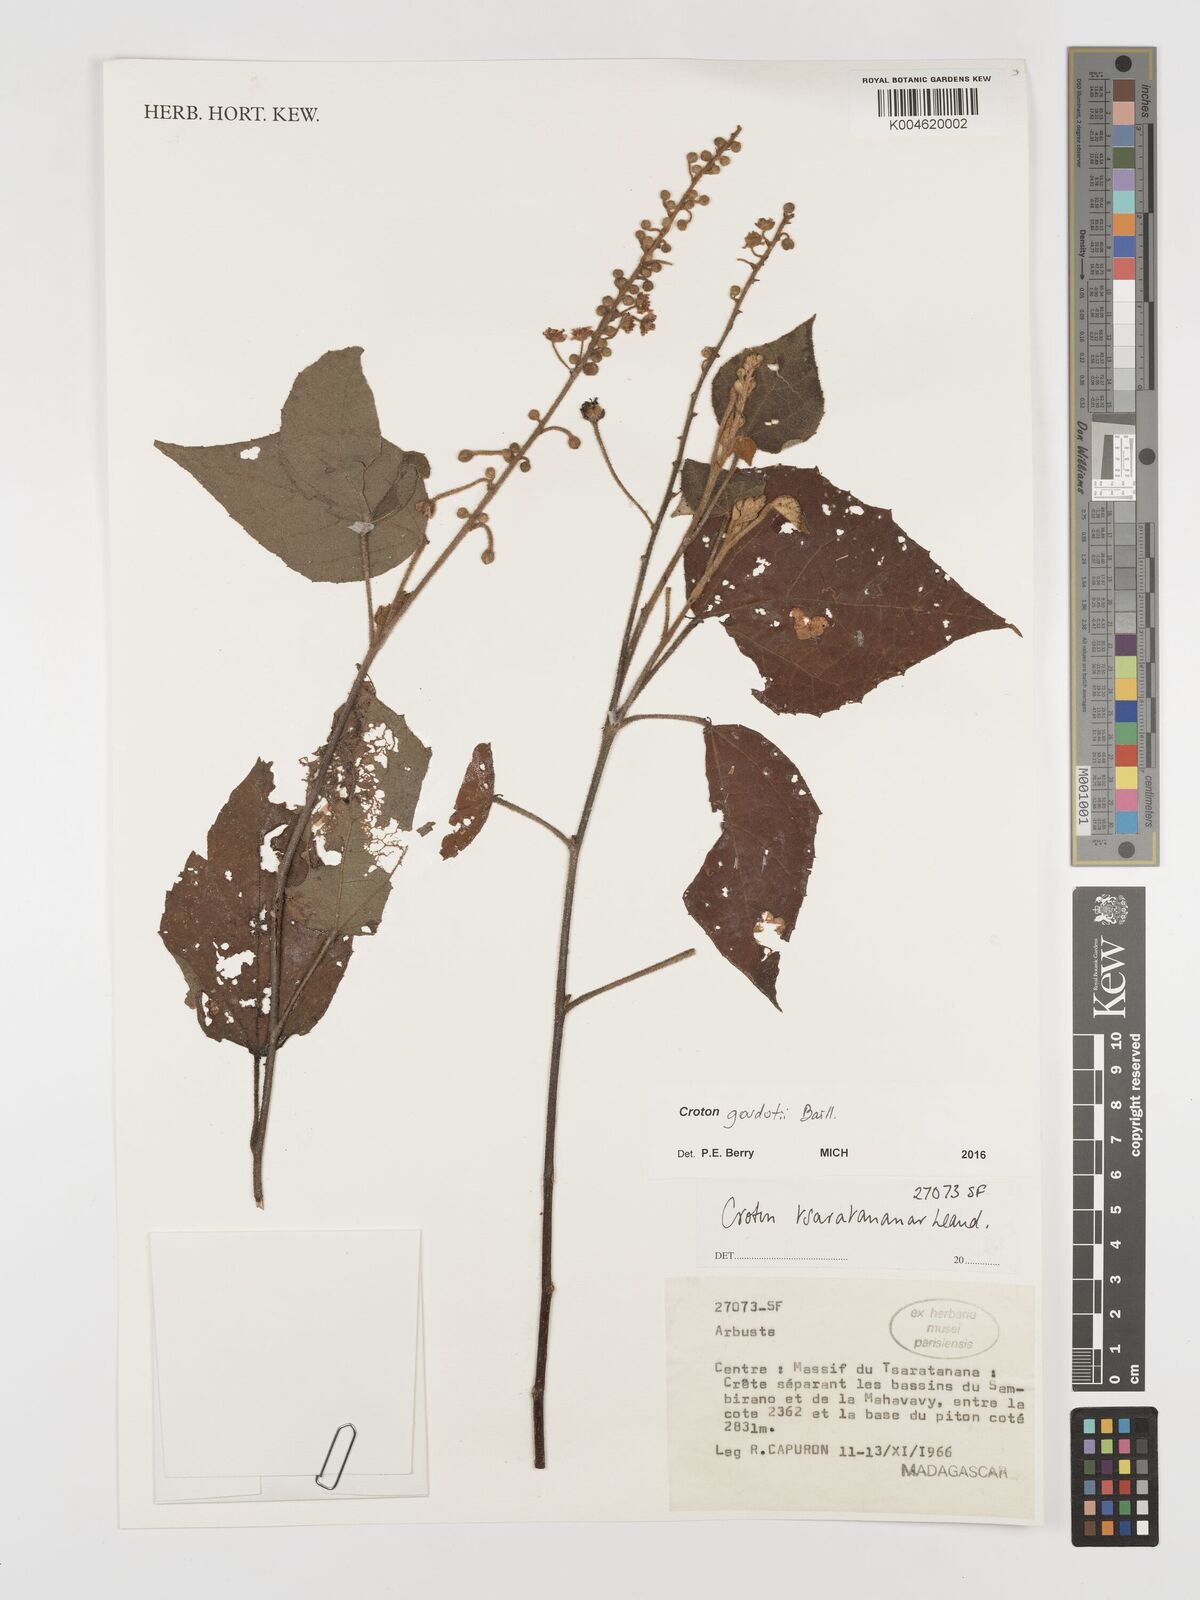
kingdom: Plantae
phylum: Tracheophyta
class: Magnoliopsida
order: Malpighiales
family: Euphorbiaceae
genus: Croton
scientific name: Croton goudotii
